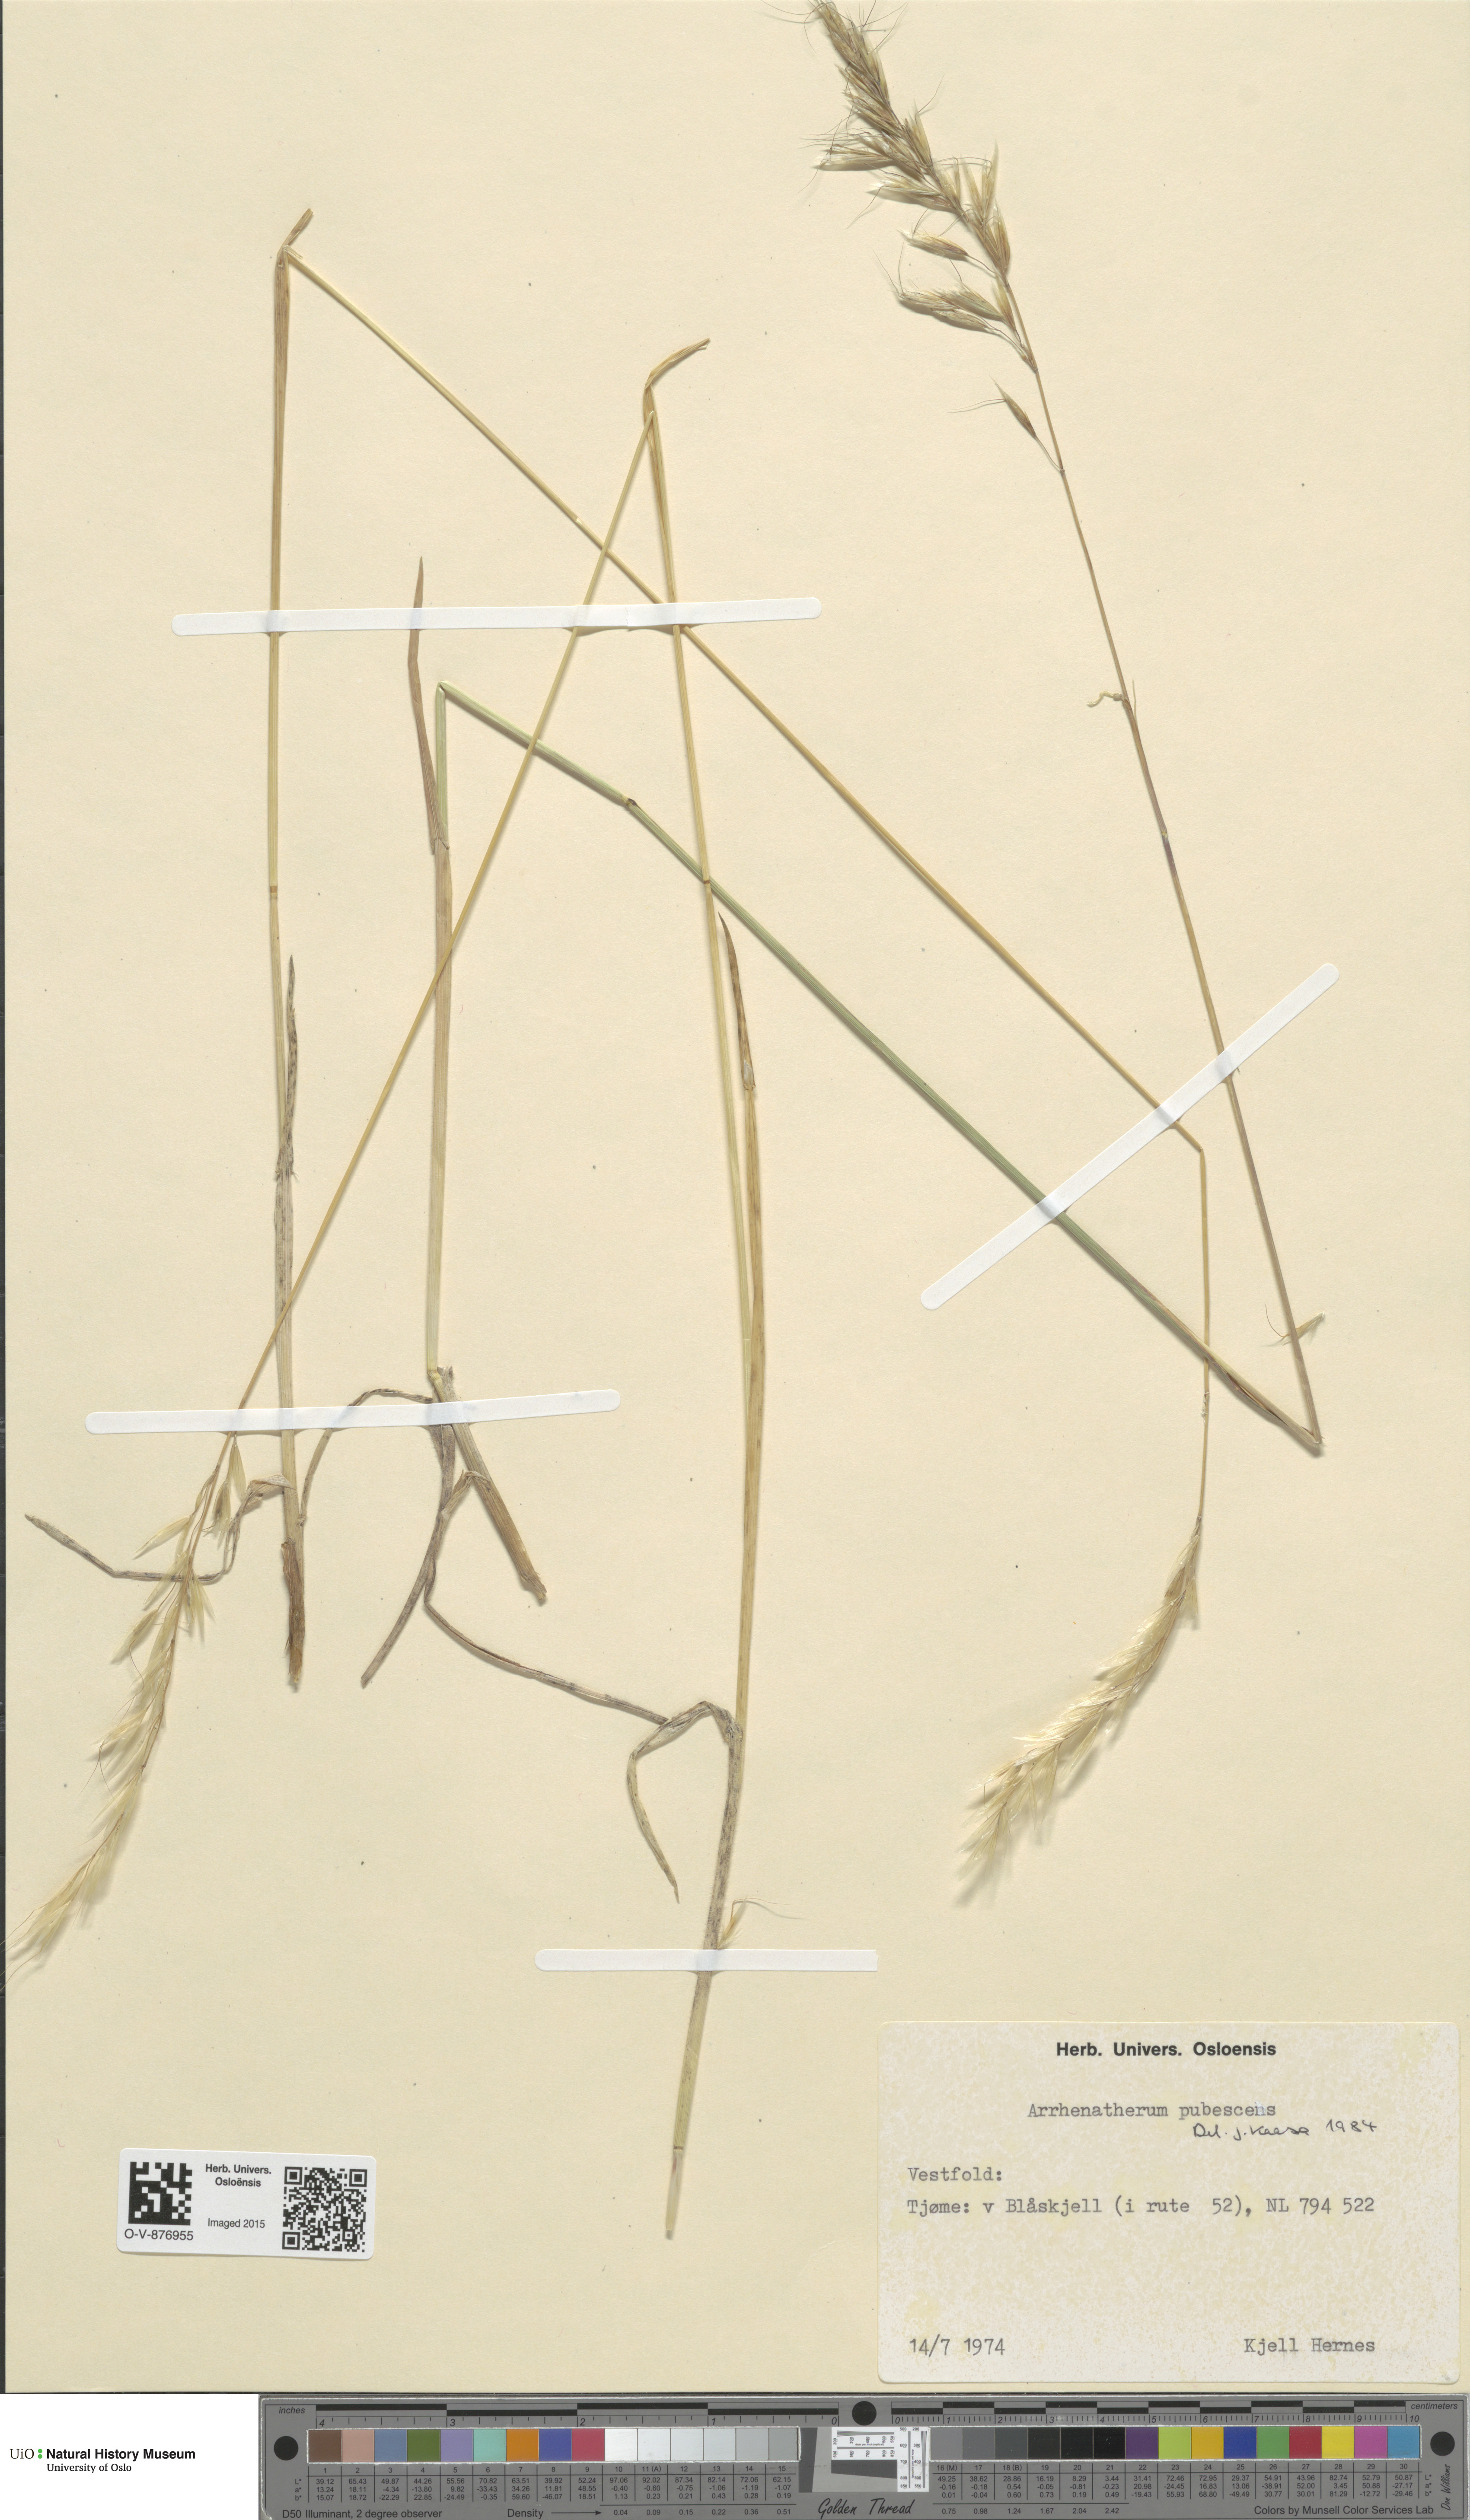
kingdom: Plantae
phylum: Tracheophyta
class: Liliopsida
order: Poales
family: Poaceae
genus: Avenula
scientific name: Avenula pubescens
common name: Downy alpine oatgrass
